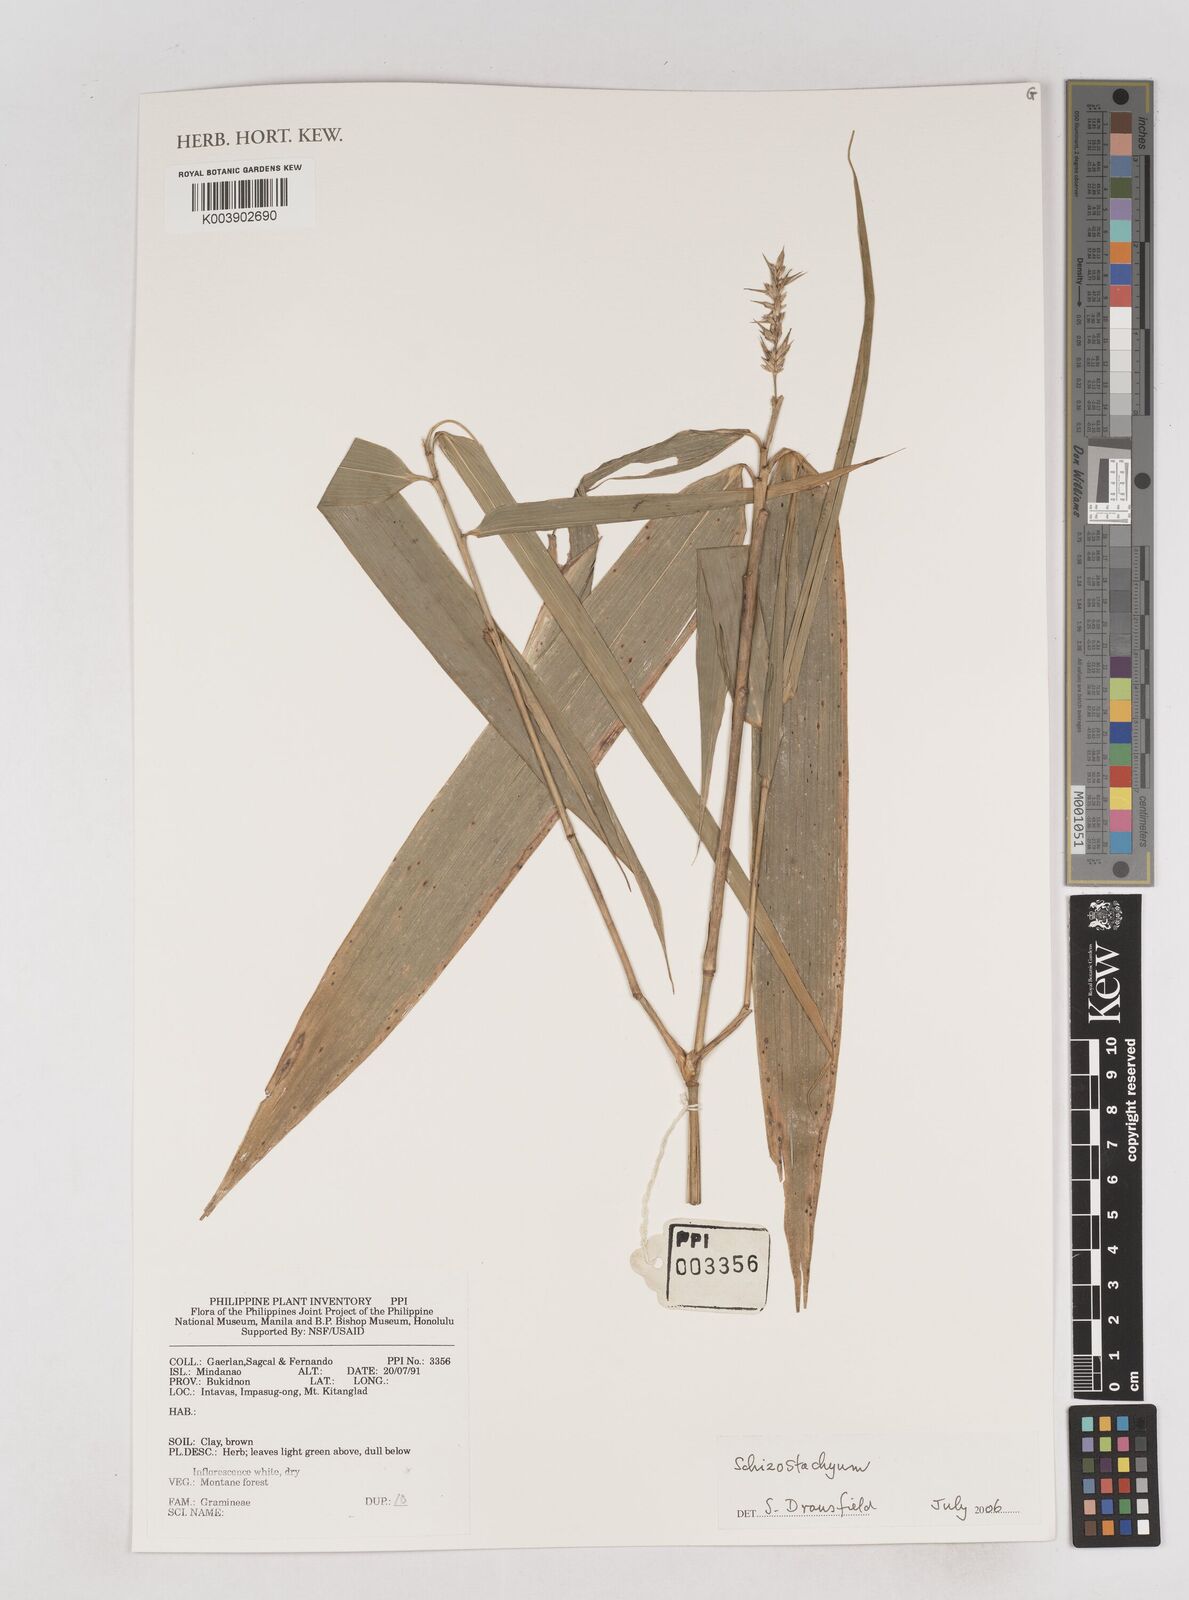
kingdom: Plantae
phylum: Tracheophyta
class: Liliopsida
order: Poales
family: Poaceae
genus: Schizostachyum
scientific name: Schizostachyum
